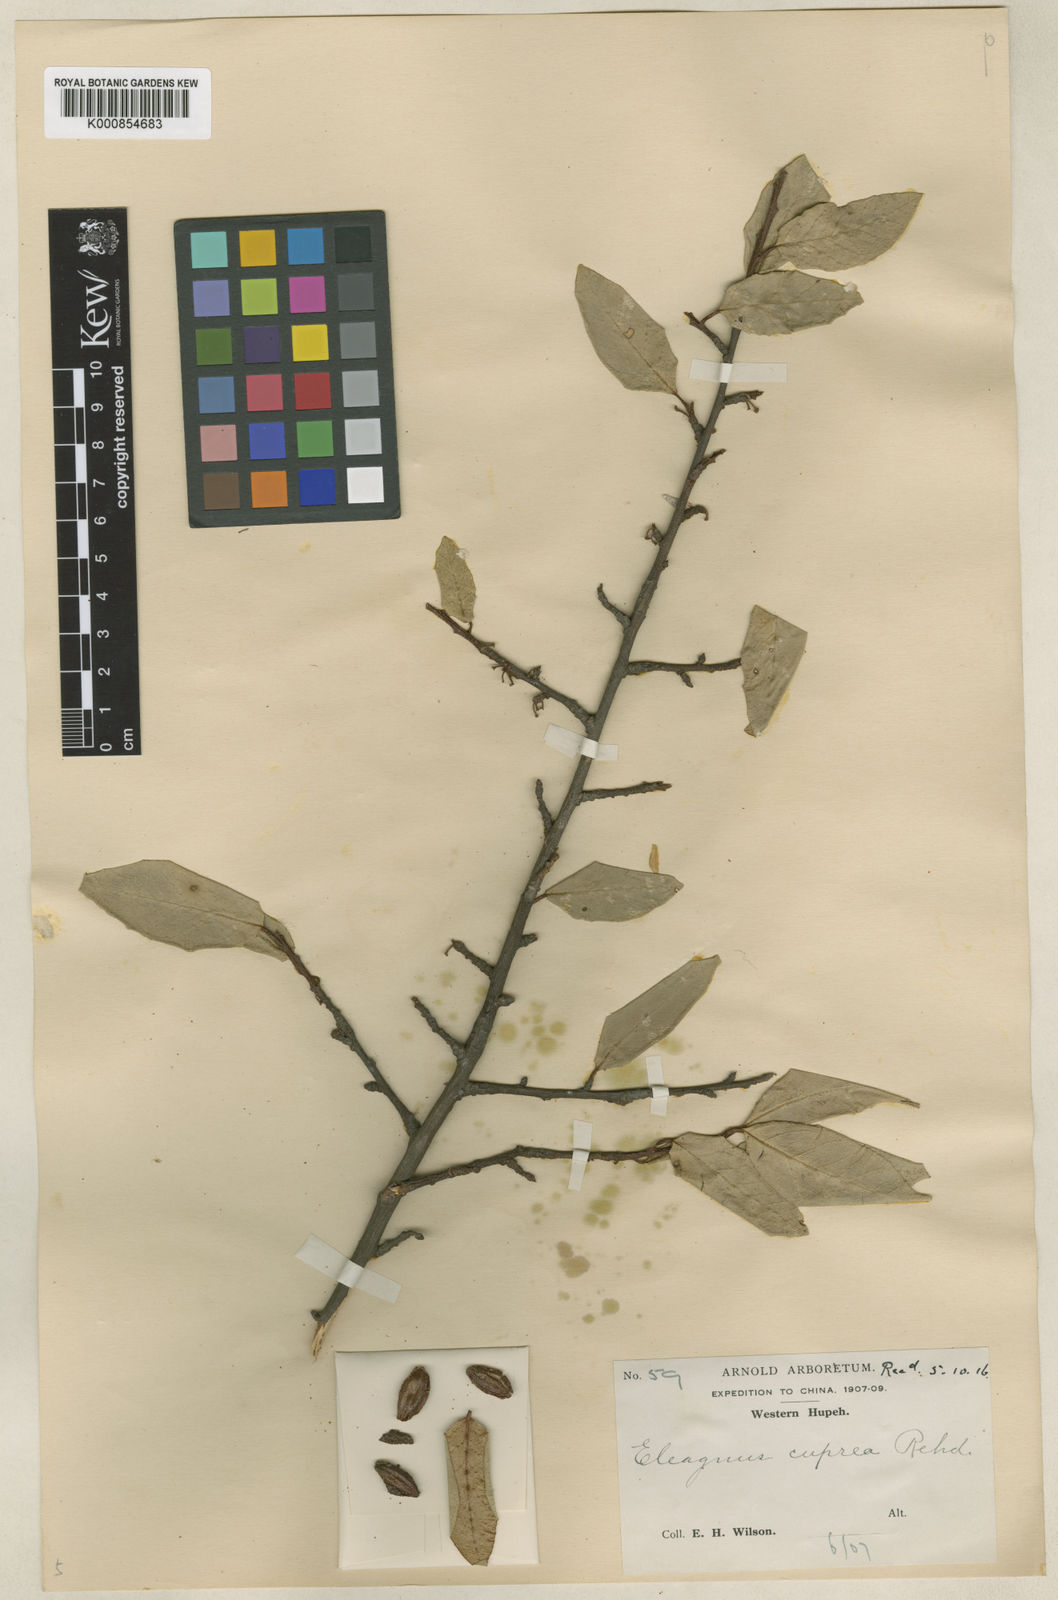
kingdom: Plantae
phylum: Tracheophyta
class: Magnoliopsida
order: Rosales
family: Elaeagnaceae
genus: Elaeagnus
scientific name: Elaeagnus difficilis
